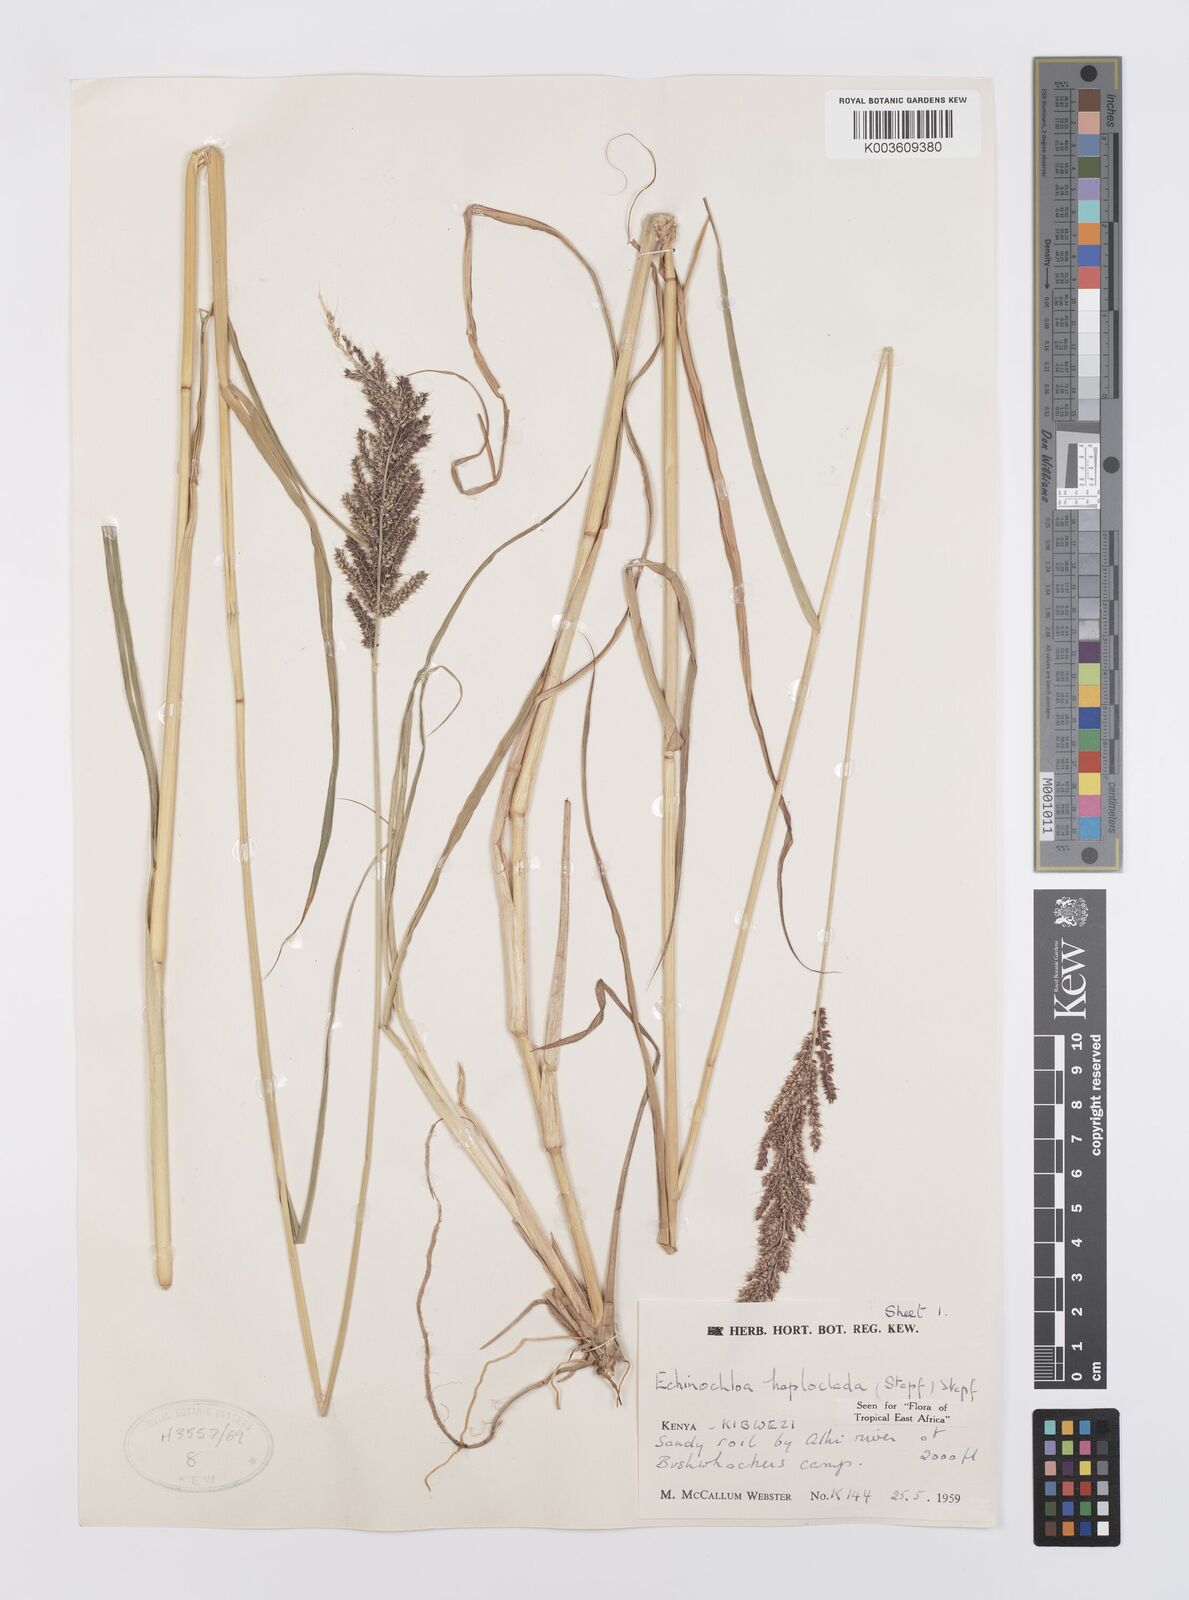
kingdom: Plantae
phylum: Tracheophyta
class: Liliopsida
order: Poales
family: Poaceae
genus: Echinochloa
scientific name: Echinochloa haploclada
